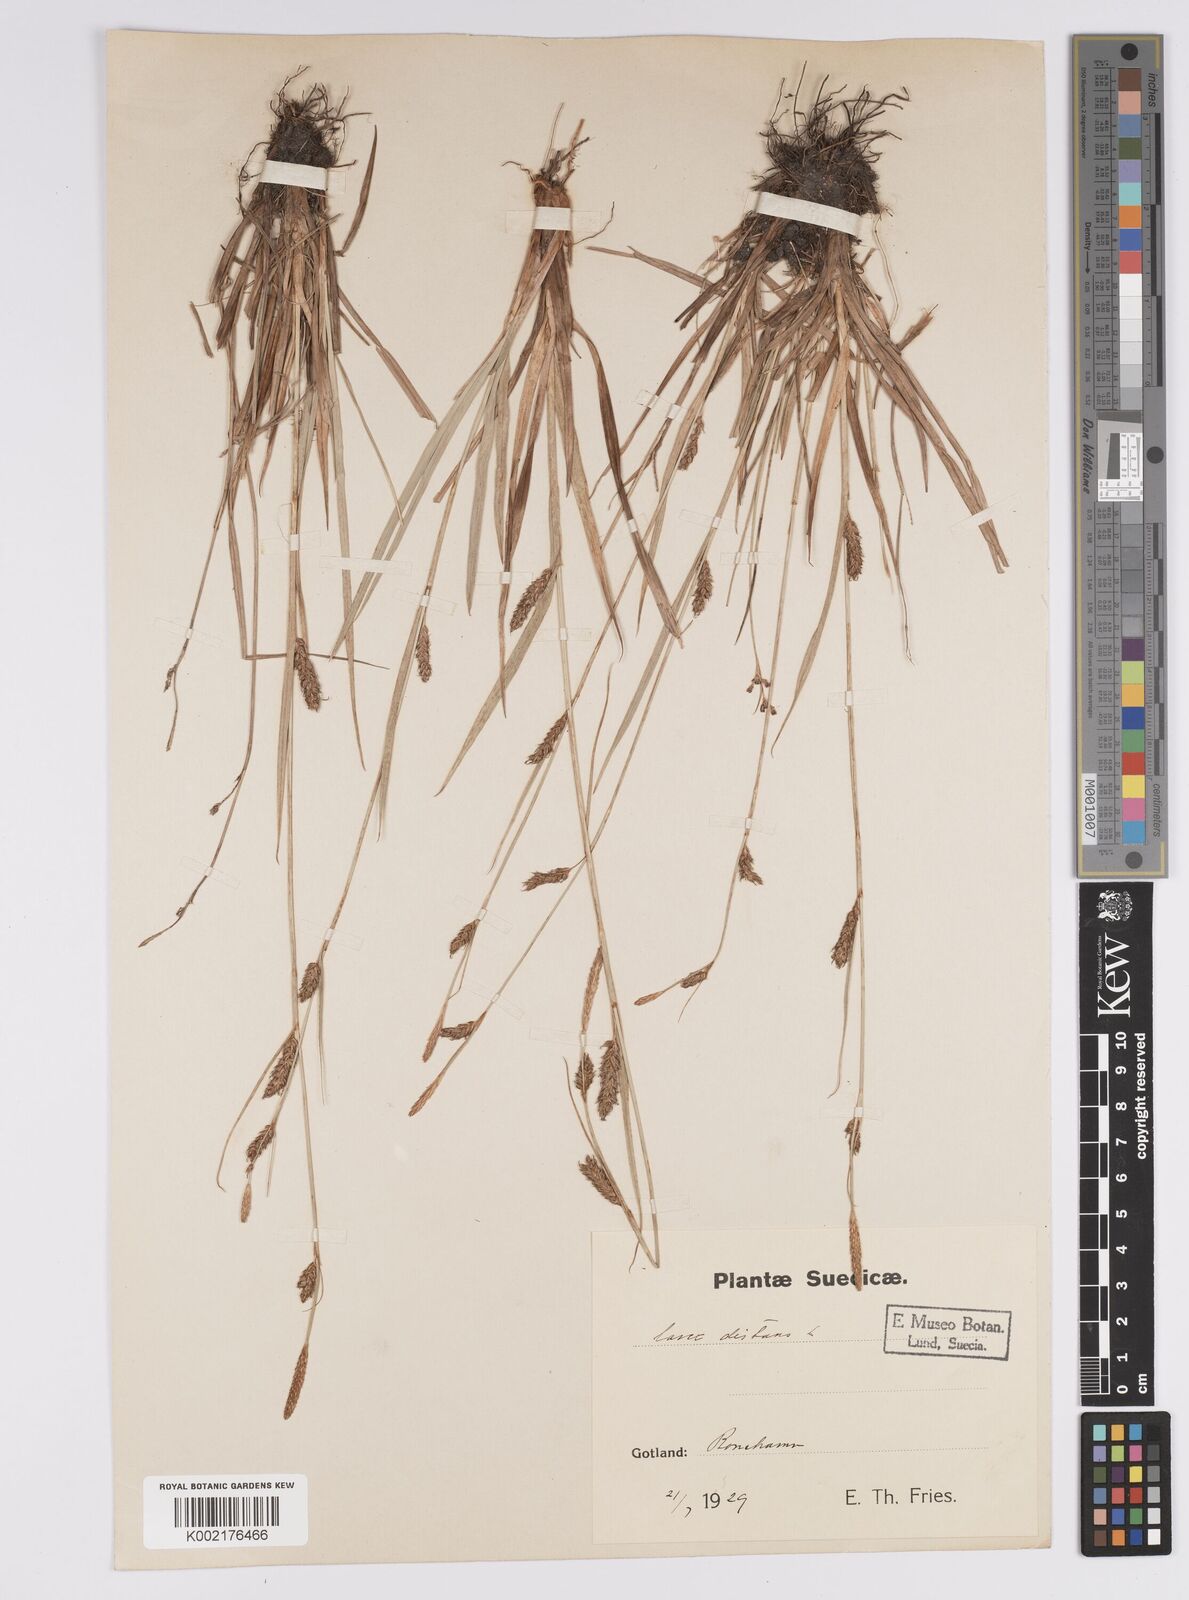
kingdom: Plantae
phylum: Tracheophyta
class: Liliopsida
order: Poales
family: Cyperaceae
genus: Carex
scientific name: Carex distans
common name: Distant sedge
